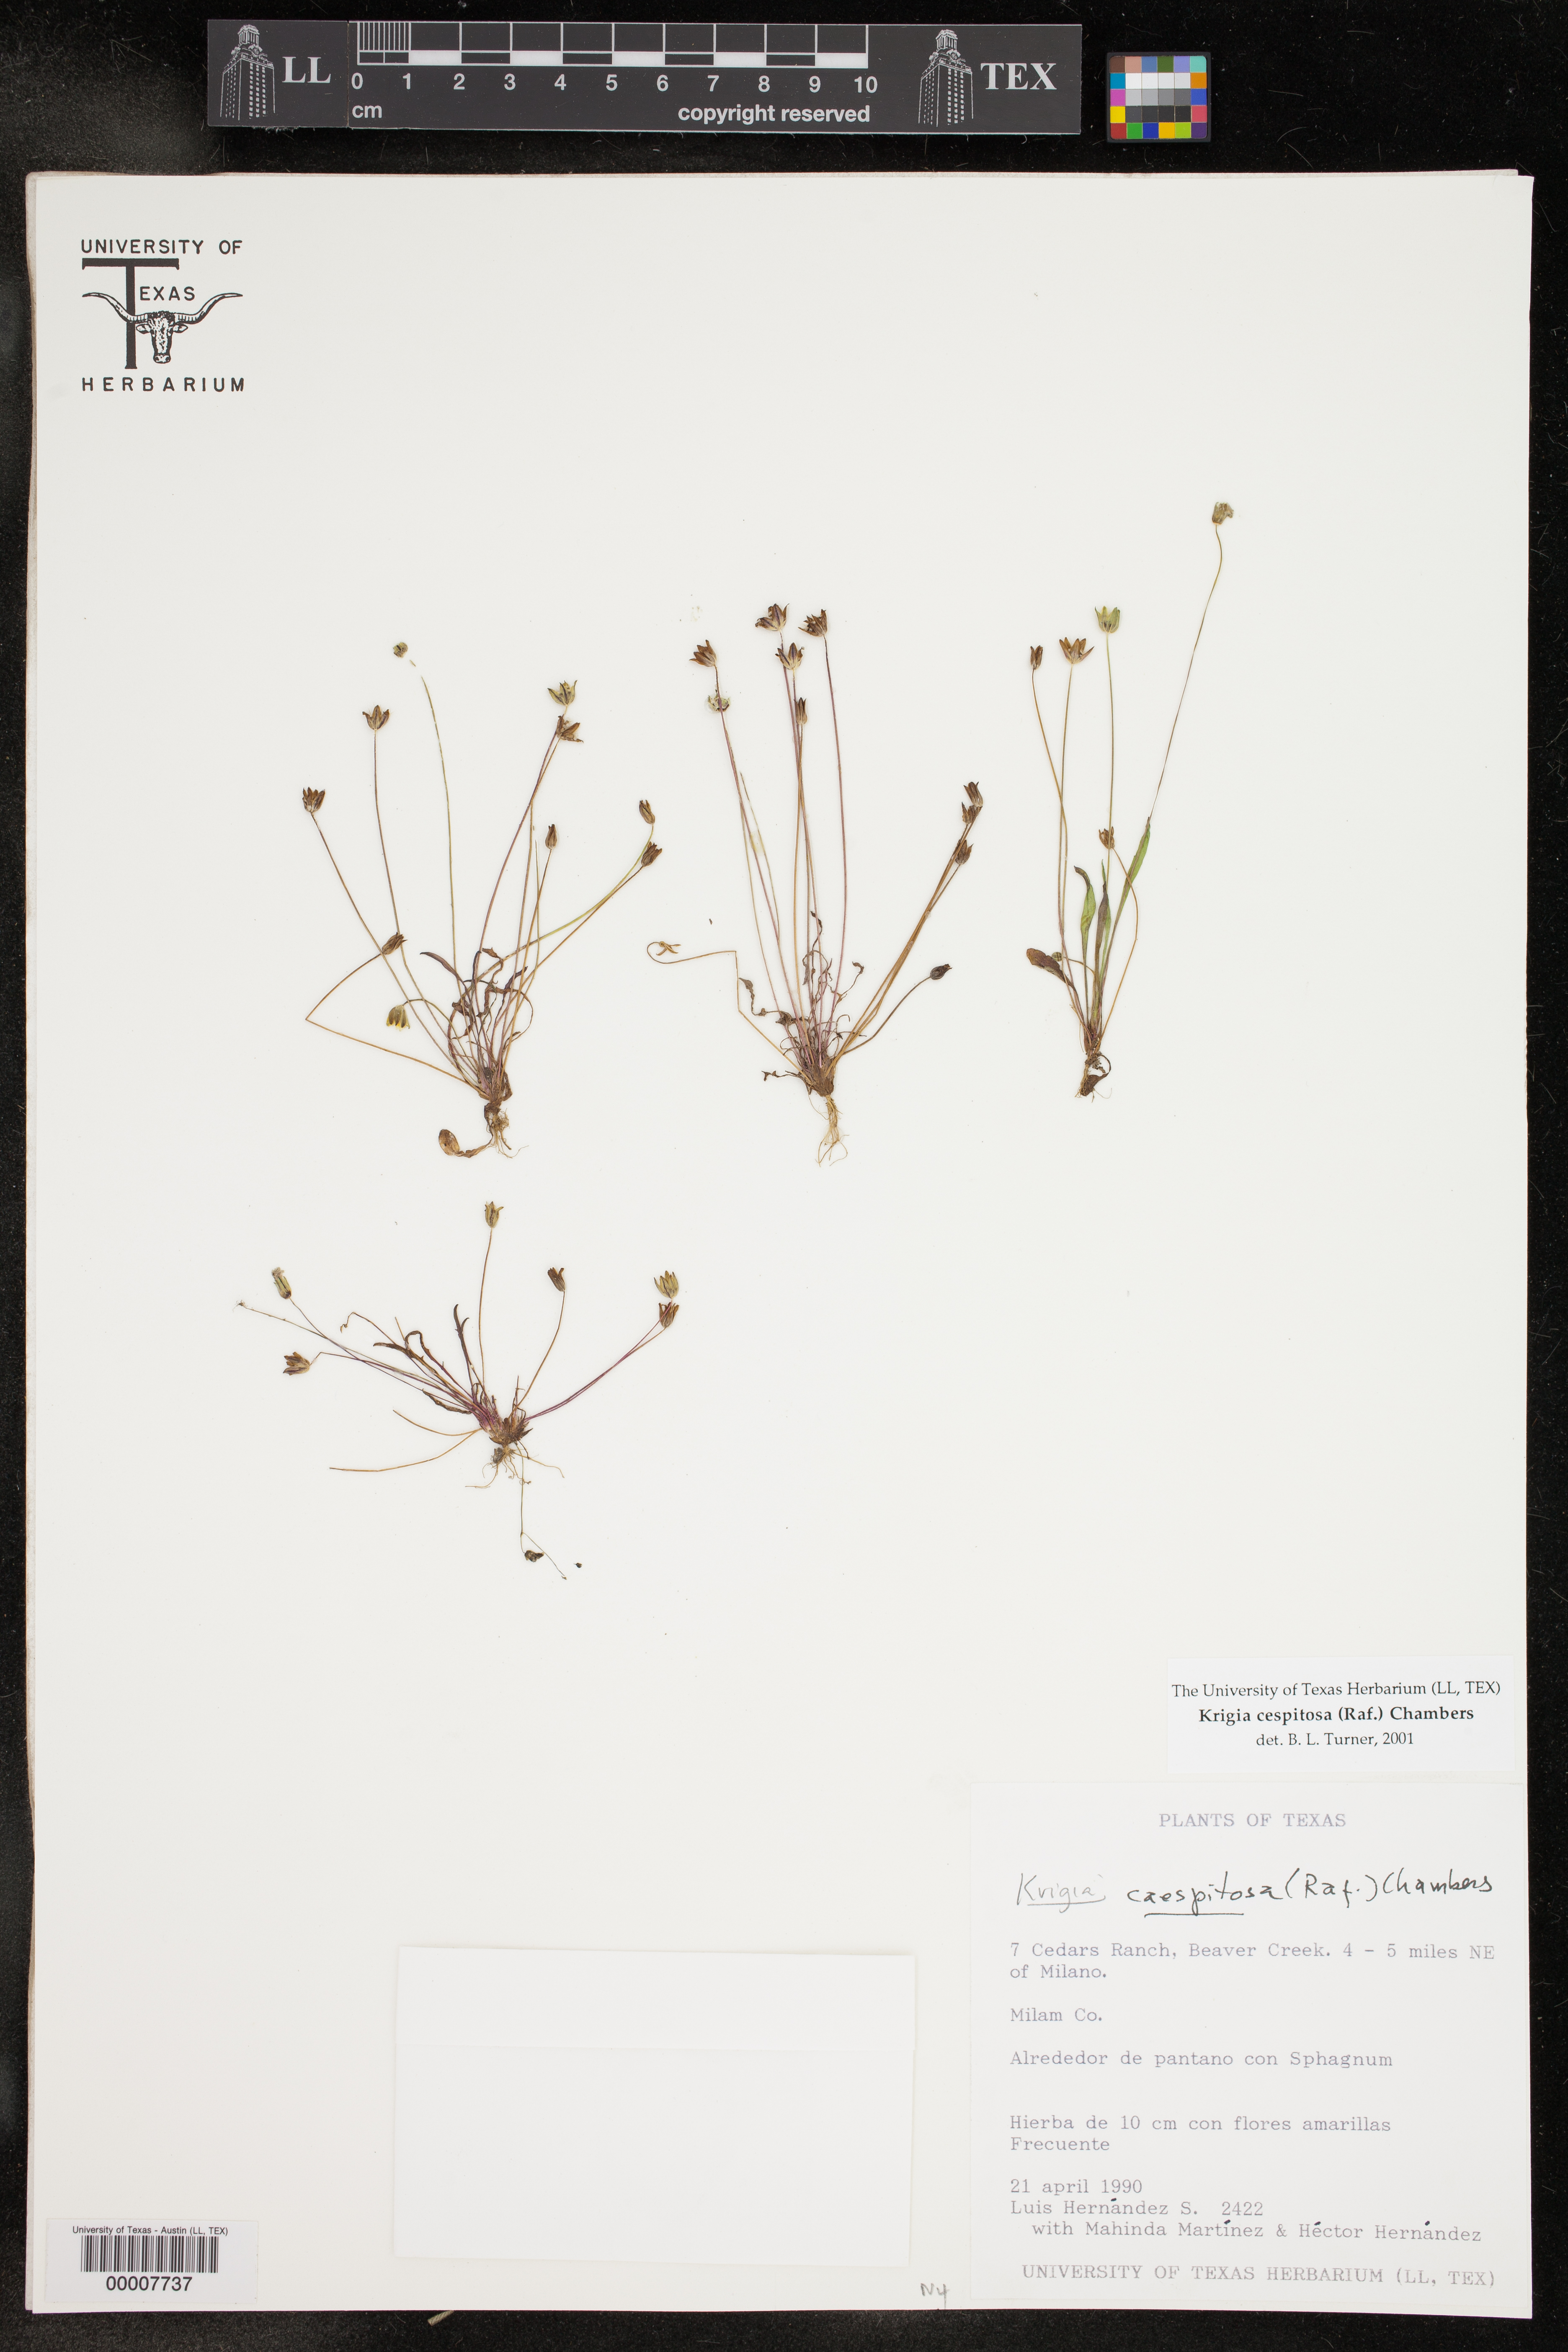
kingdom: Plantae
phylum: Tracheophyta
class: Magnoliopsida
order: Asterales
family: Asteraceae
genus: Krigia
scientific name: Krigia cespitosa
